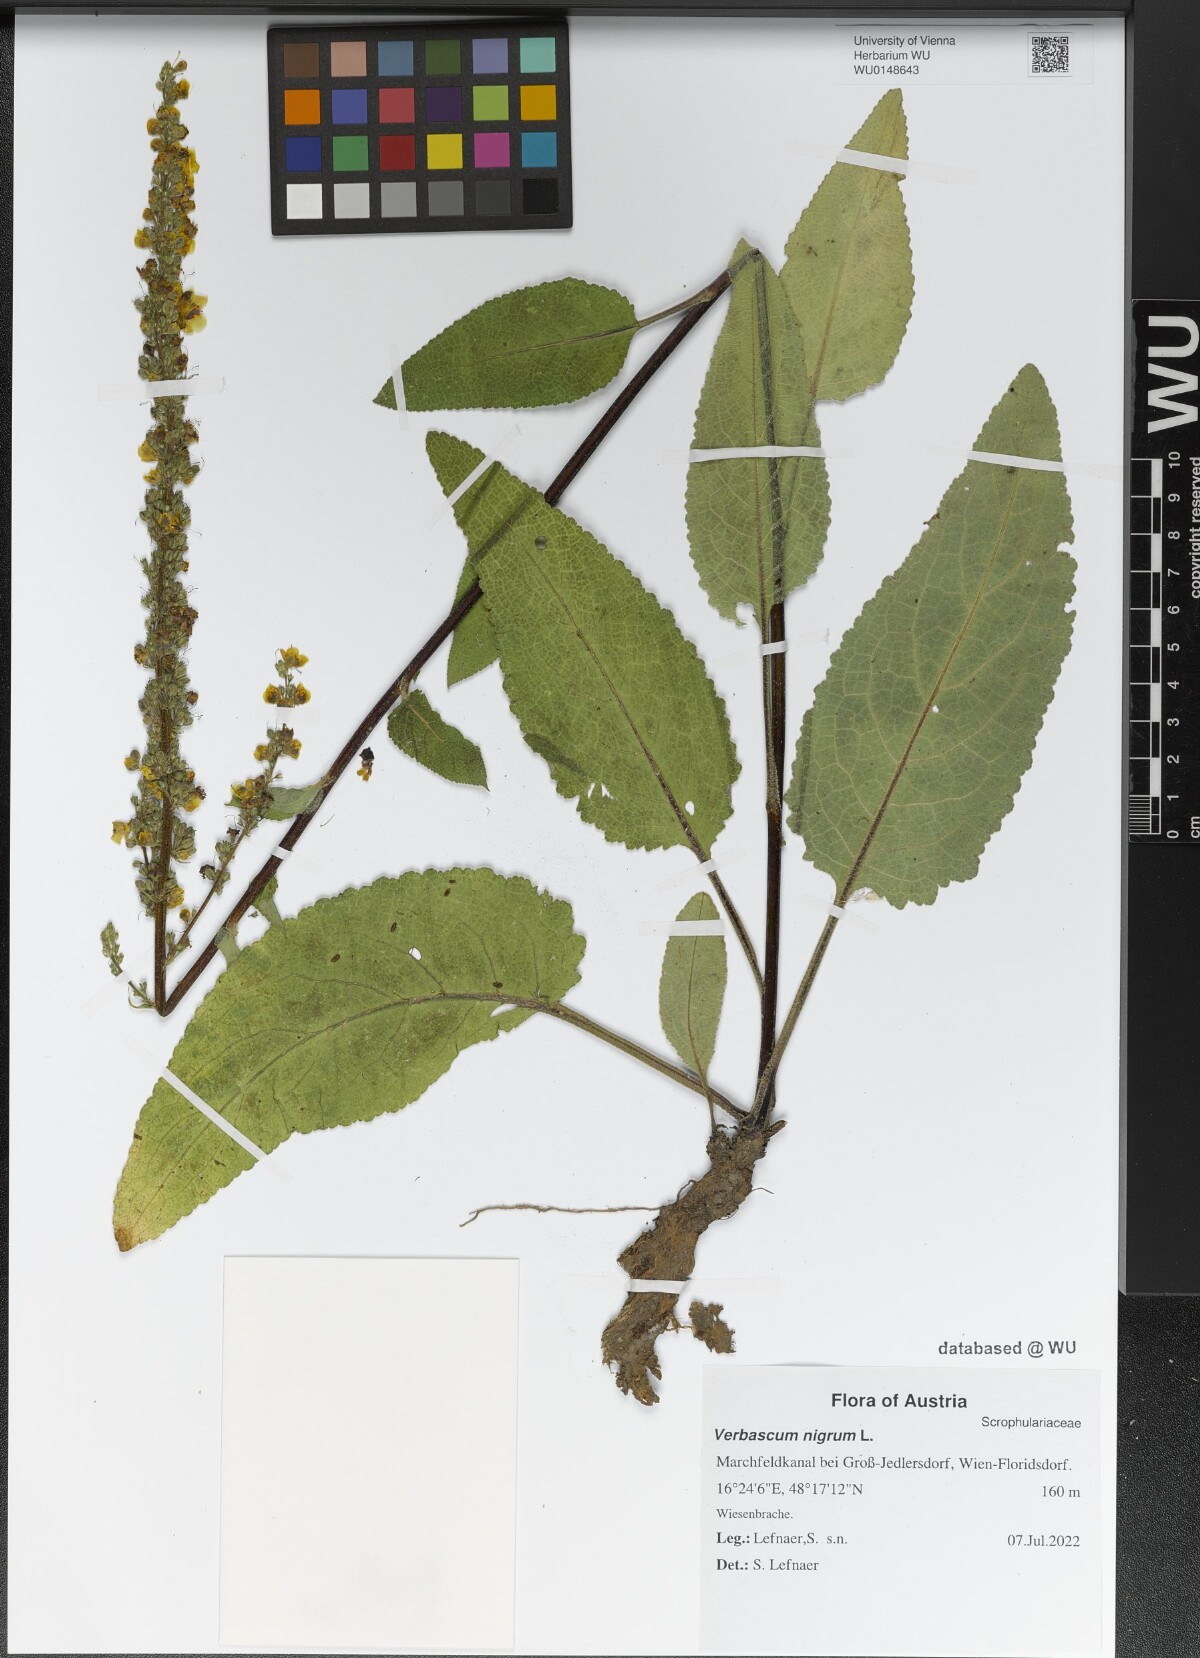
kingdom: Plantae
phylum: Tracheophyta
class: Magnoliopsida
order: Lamiales
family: Scrophulariaceae
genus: Verbascum
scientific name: Verbascum nigrum
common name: Dark mullein
